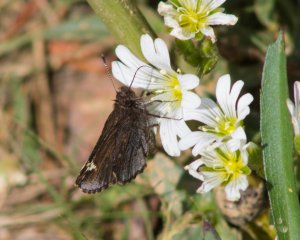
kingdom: Animalia
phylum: Arthropoda
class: Insecta
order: Lepidoptera
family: Hesperiidae
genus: Mastor
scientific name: Mastor vialis
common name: Common Roadside-Skipper
